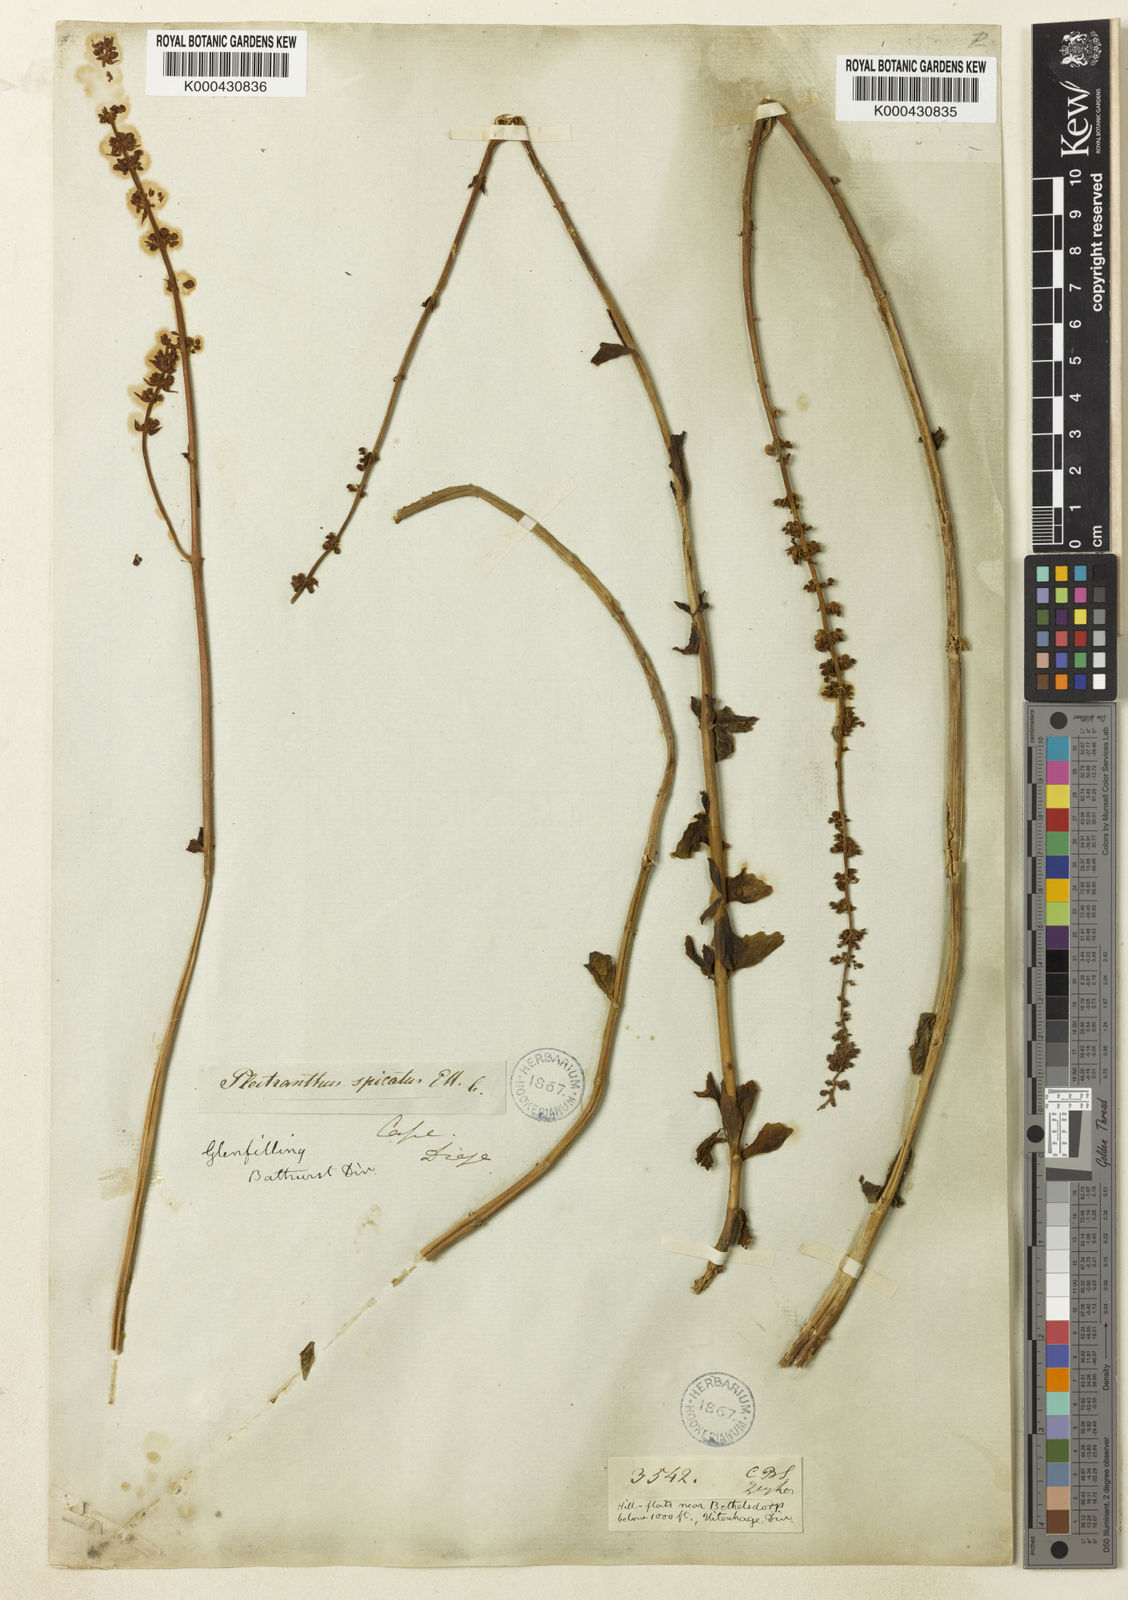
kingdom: Plantae
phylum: Tracheophyta
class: Magnoliopsida
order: Lamiales
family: Lamiaceae
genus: Plectranthus
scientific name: Plectranthus
